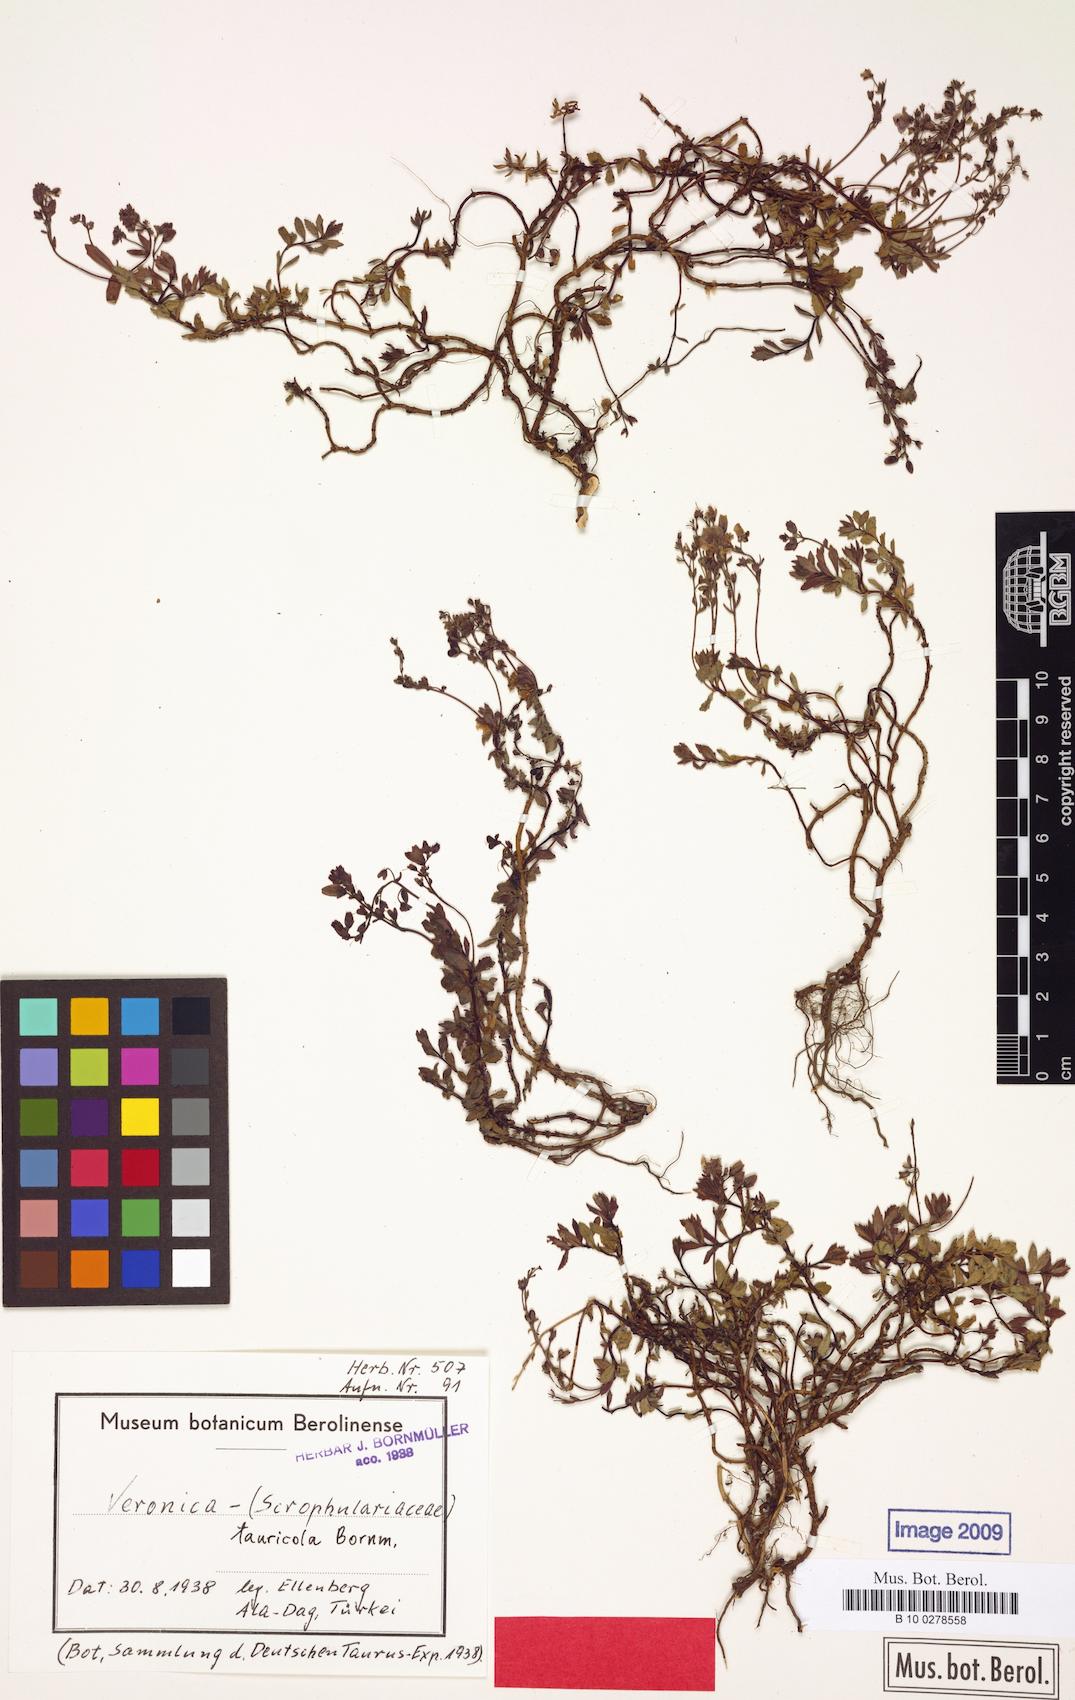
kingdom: Plantae
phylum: Tracheophyta
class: Magnoliopsida
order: Lamiales
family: Plantaginaceae
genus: Veronica
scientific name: Veronica tauricola
